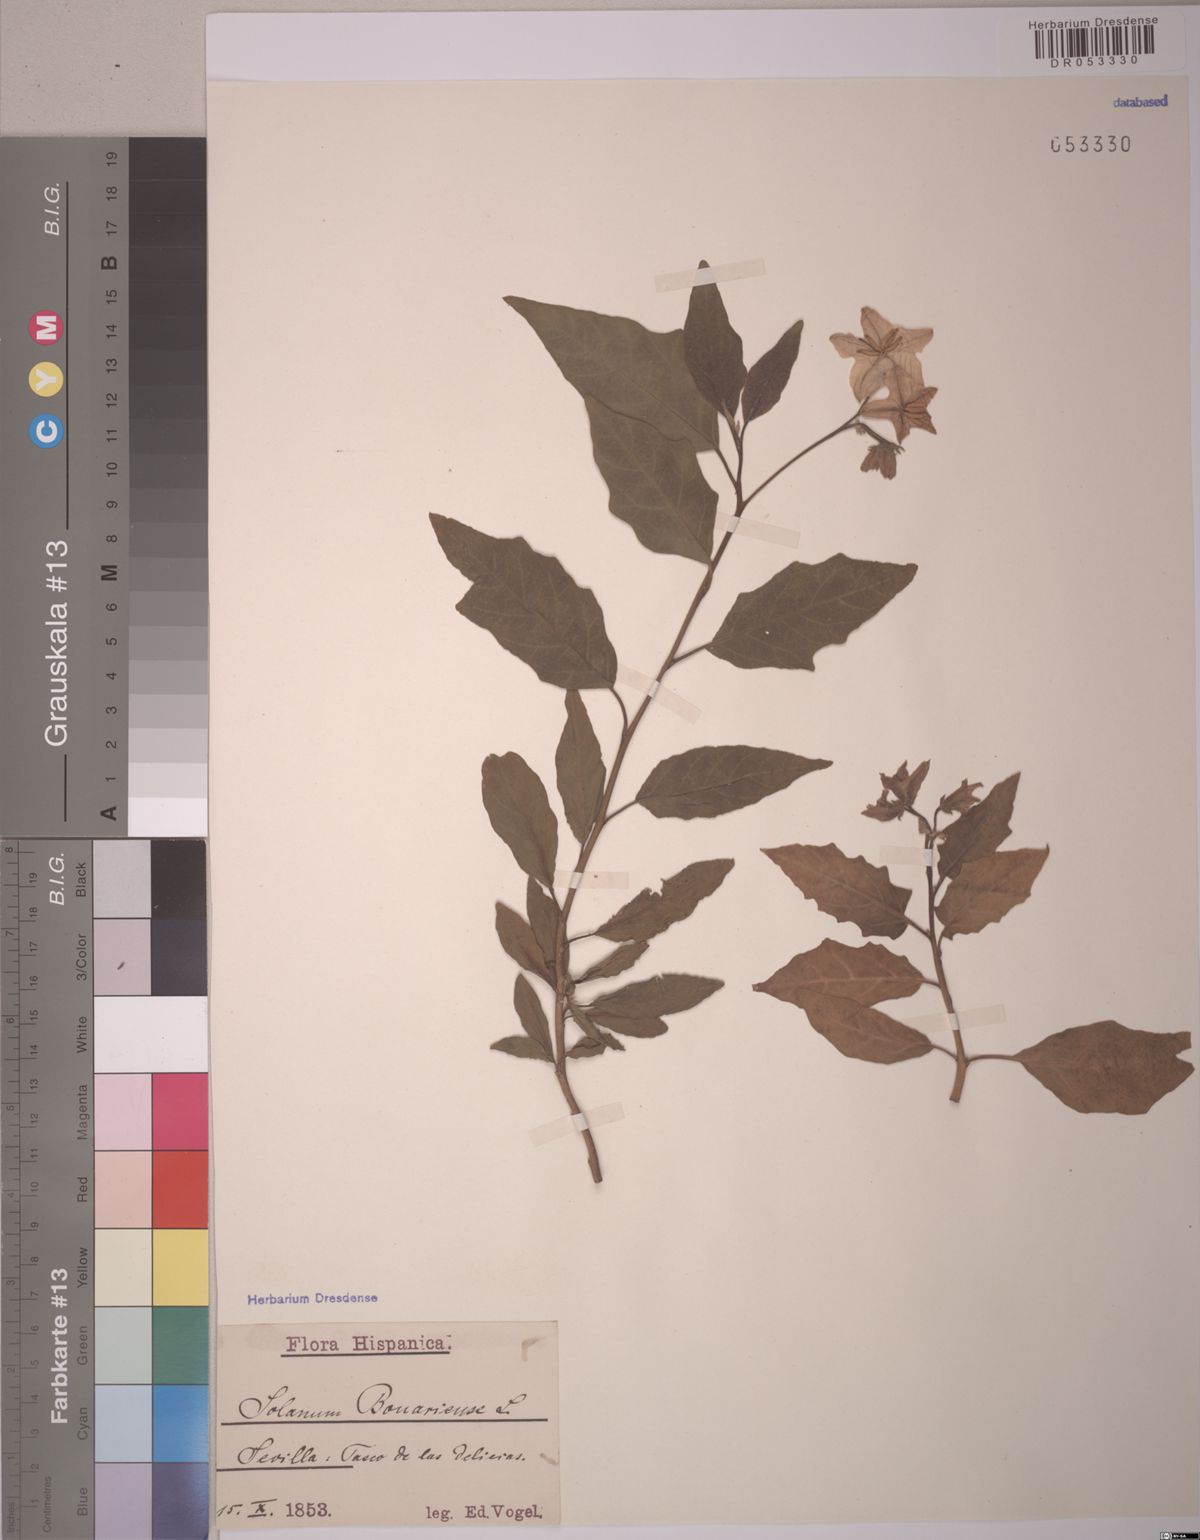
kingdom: Plantae
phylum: Tracheophyta
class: Magnoliopsida
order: Solanales
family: Solanaceae
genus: Solanum
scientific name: Solanum bonariense
